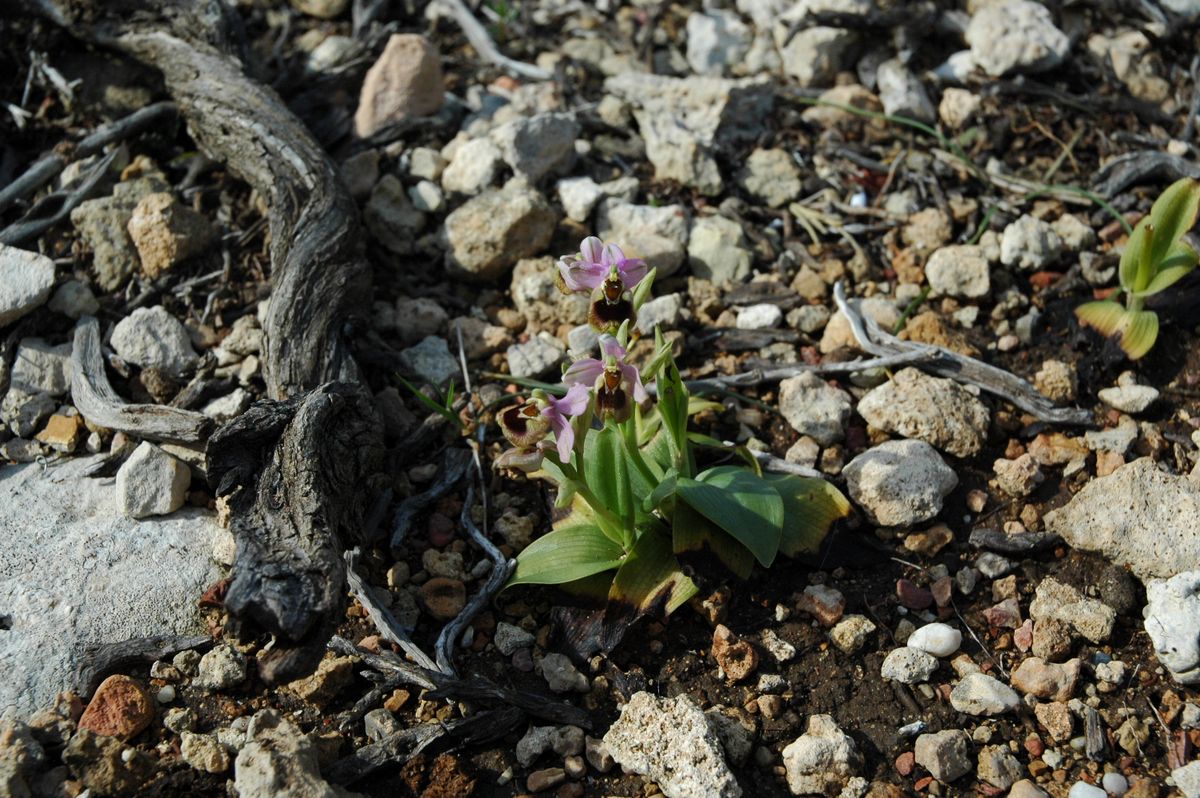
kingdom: Plantae
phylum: Tracheophyta
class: Liliopsida
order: Asparagales
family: Orchidaceae
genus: Ophrys
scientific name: Ophrys tenthredinifera
